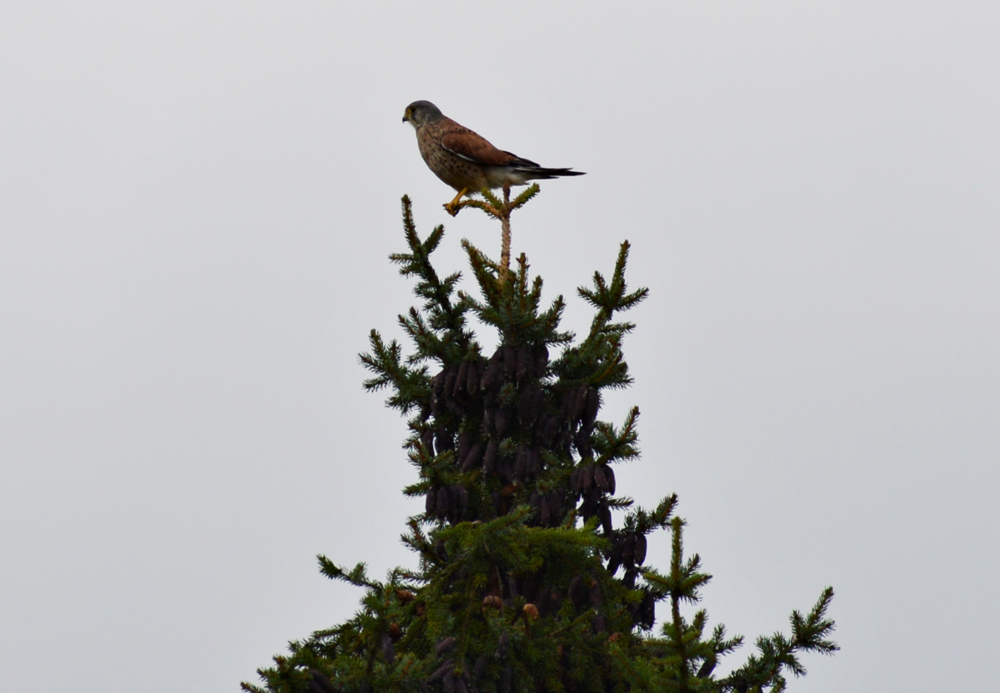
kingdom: Animalia
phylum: Chordata
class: Aves
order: Falconiformes
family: Falconidae
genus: Falco
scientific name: Falco tinnunculus
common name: Common kestrel
